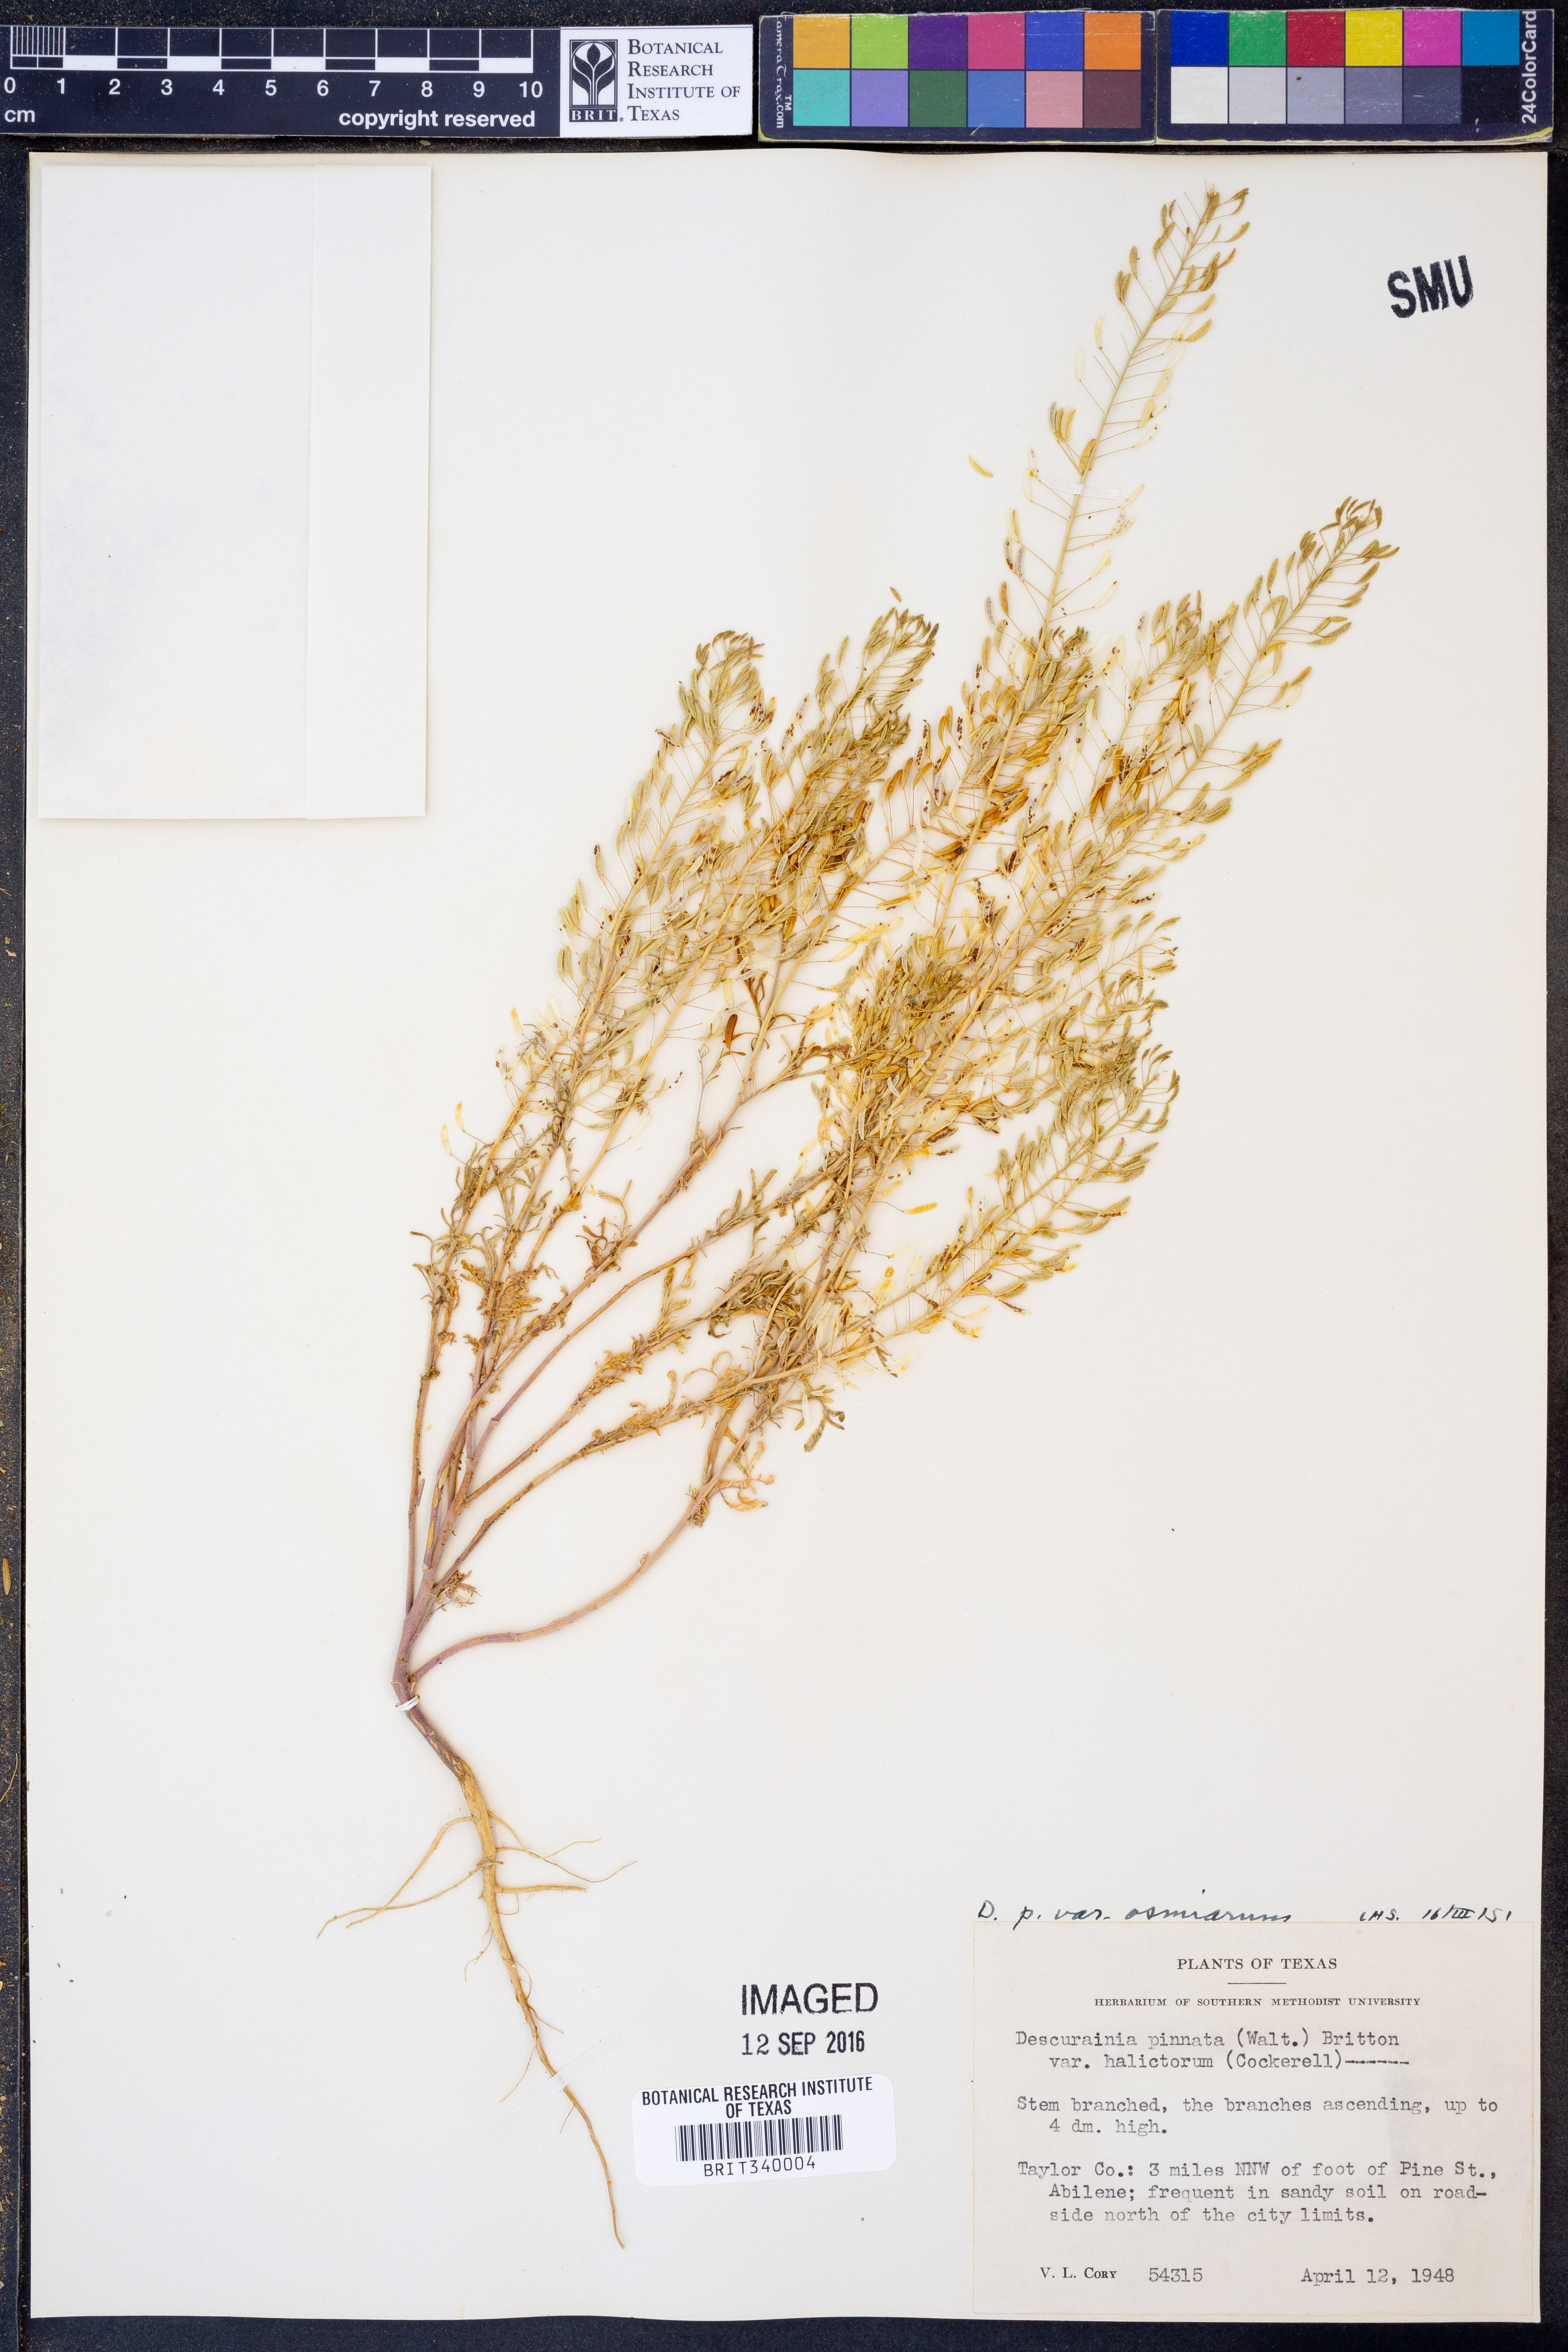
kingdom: Plantae
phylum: Tracheophyta
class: Magnoliopsida
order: Brassicales
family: Brassicaceae
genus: Descurainia
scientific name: Descurainia pinnata
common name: Western tansy mustard
